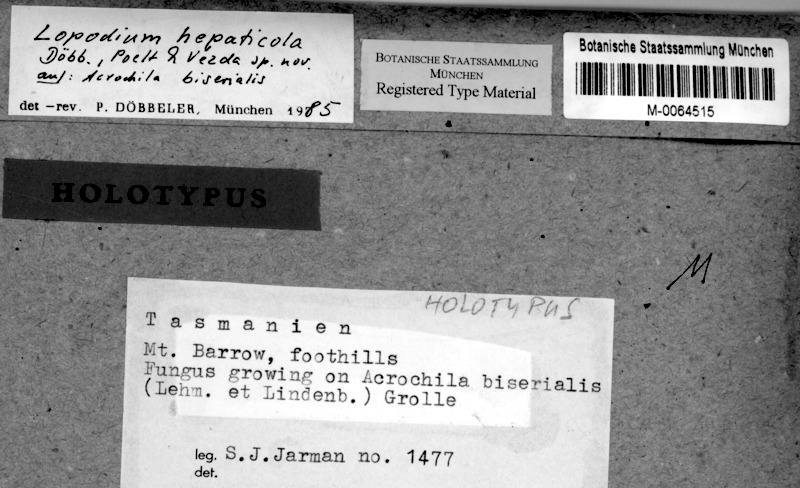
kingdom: Fungi
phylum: Ascomycota
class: Lecanoromycetes
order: Lecanorales
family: Pilocarpaceae
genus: Lopadium
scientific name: Lopadium hepaticola
